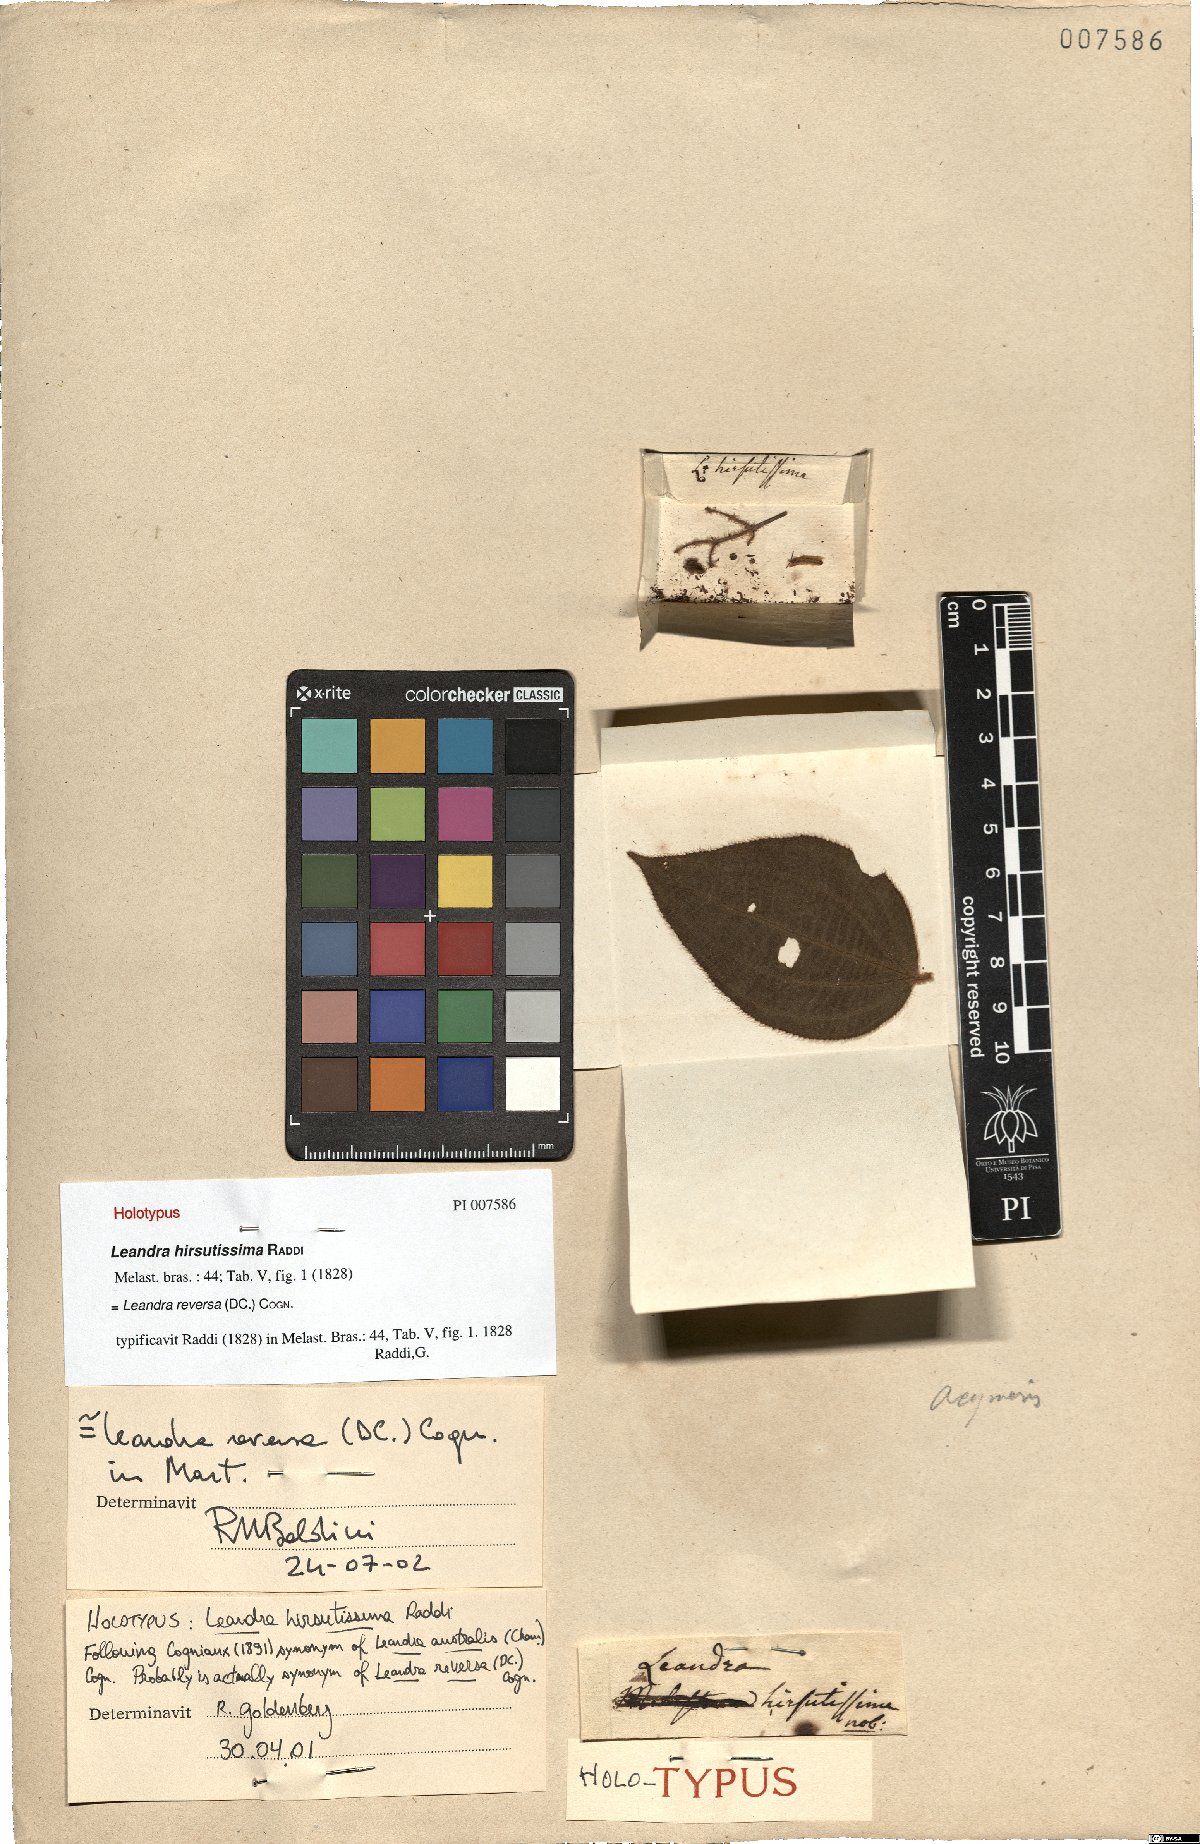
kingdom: Plantae
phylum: Tracheophyta
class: Magnoliopsida
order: Myrtales
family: Melastomataceae
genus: Miconia
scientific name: Miconia reversa
